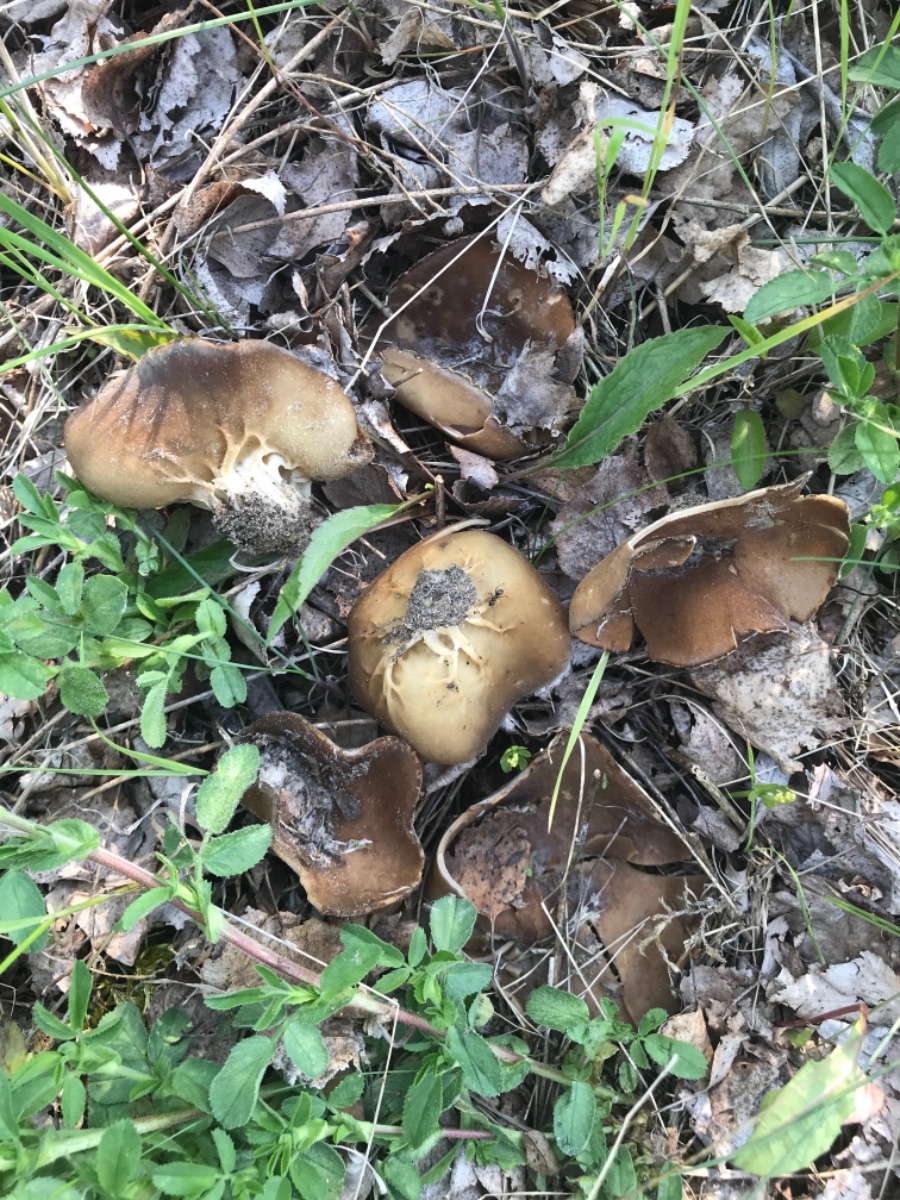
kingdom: Fungi
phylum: Ascomycota
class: Pezizomycetes
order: Pezizales
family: Helvellaceae
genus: Helvella
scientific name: Helvella acetabulum
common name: pokal-foldhat
